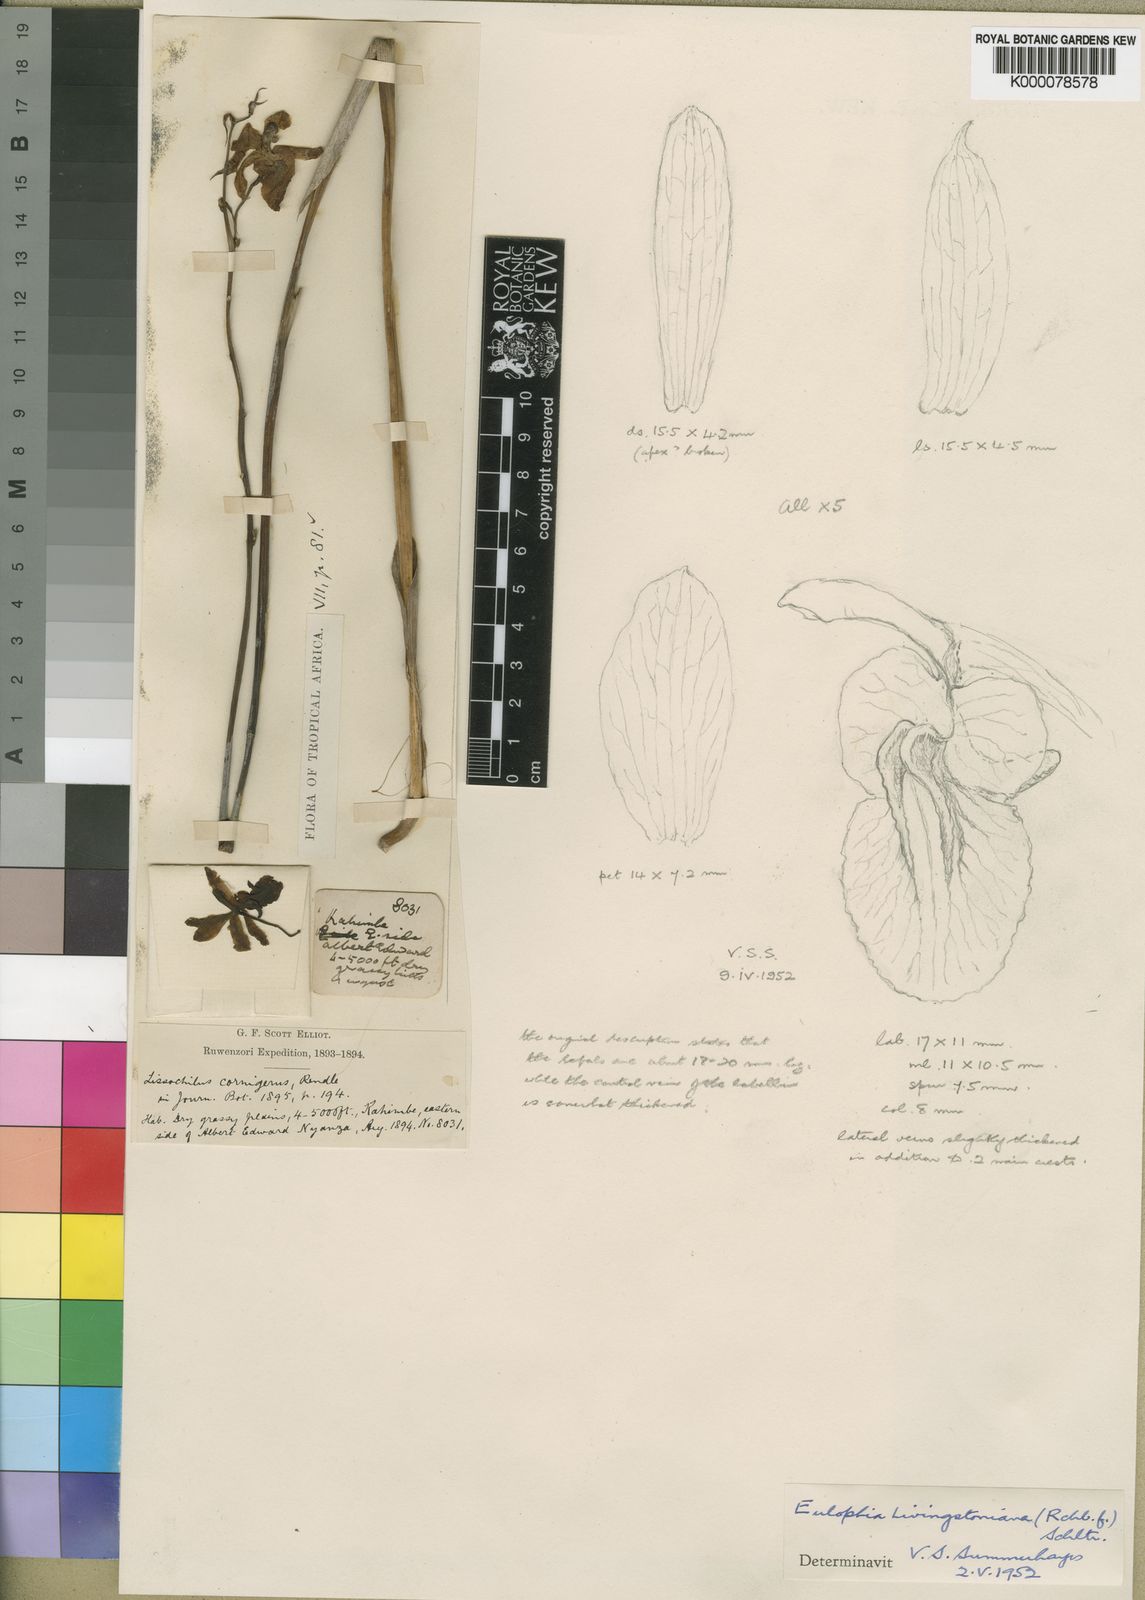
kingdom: Plantae
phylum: Tracheophyta
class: Liliopsida
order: Asparagales
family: Orchidaceae
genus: Eulophia
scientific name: Eulophia
